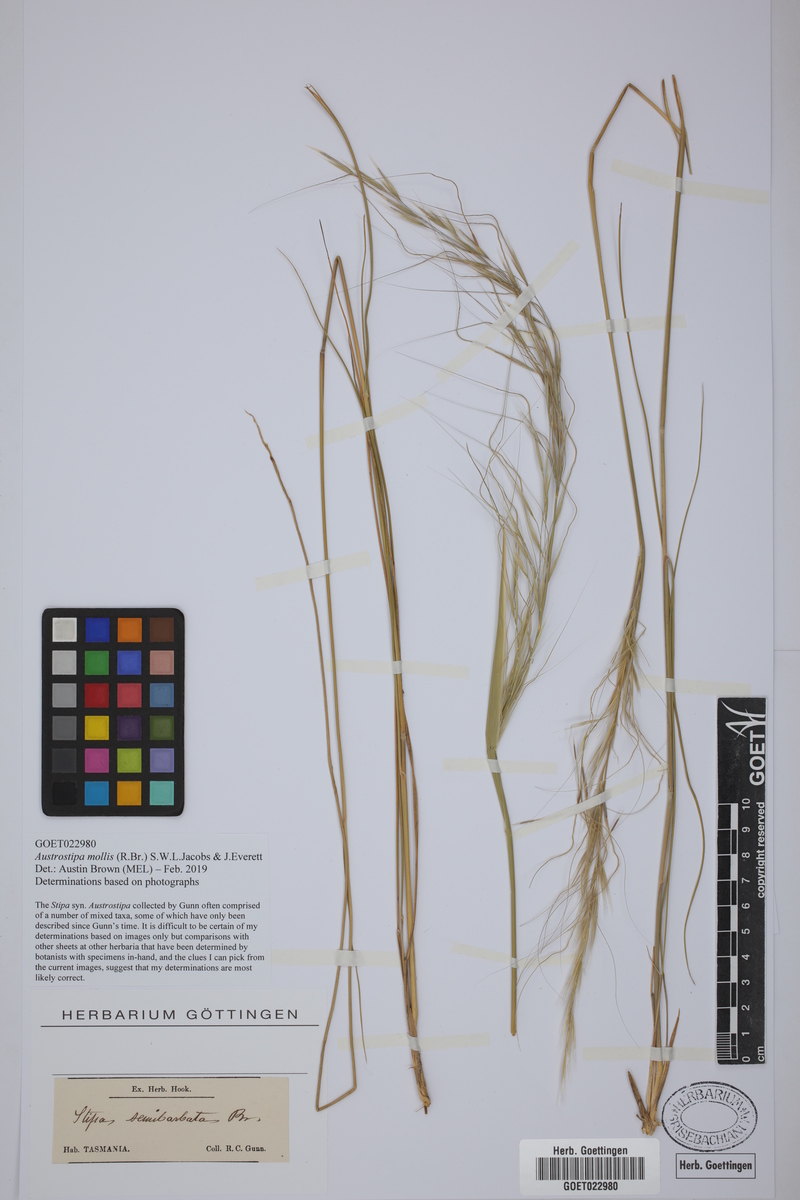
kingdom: Plantae
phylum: Tracheophyta
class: Liliopsida
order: Poales
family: Poaceae
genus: Austrostipa
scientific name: Austrostipa mollis
